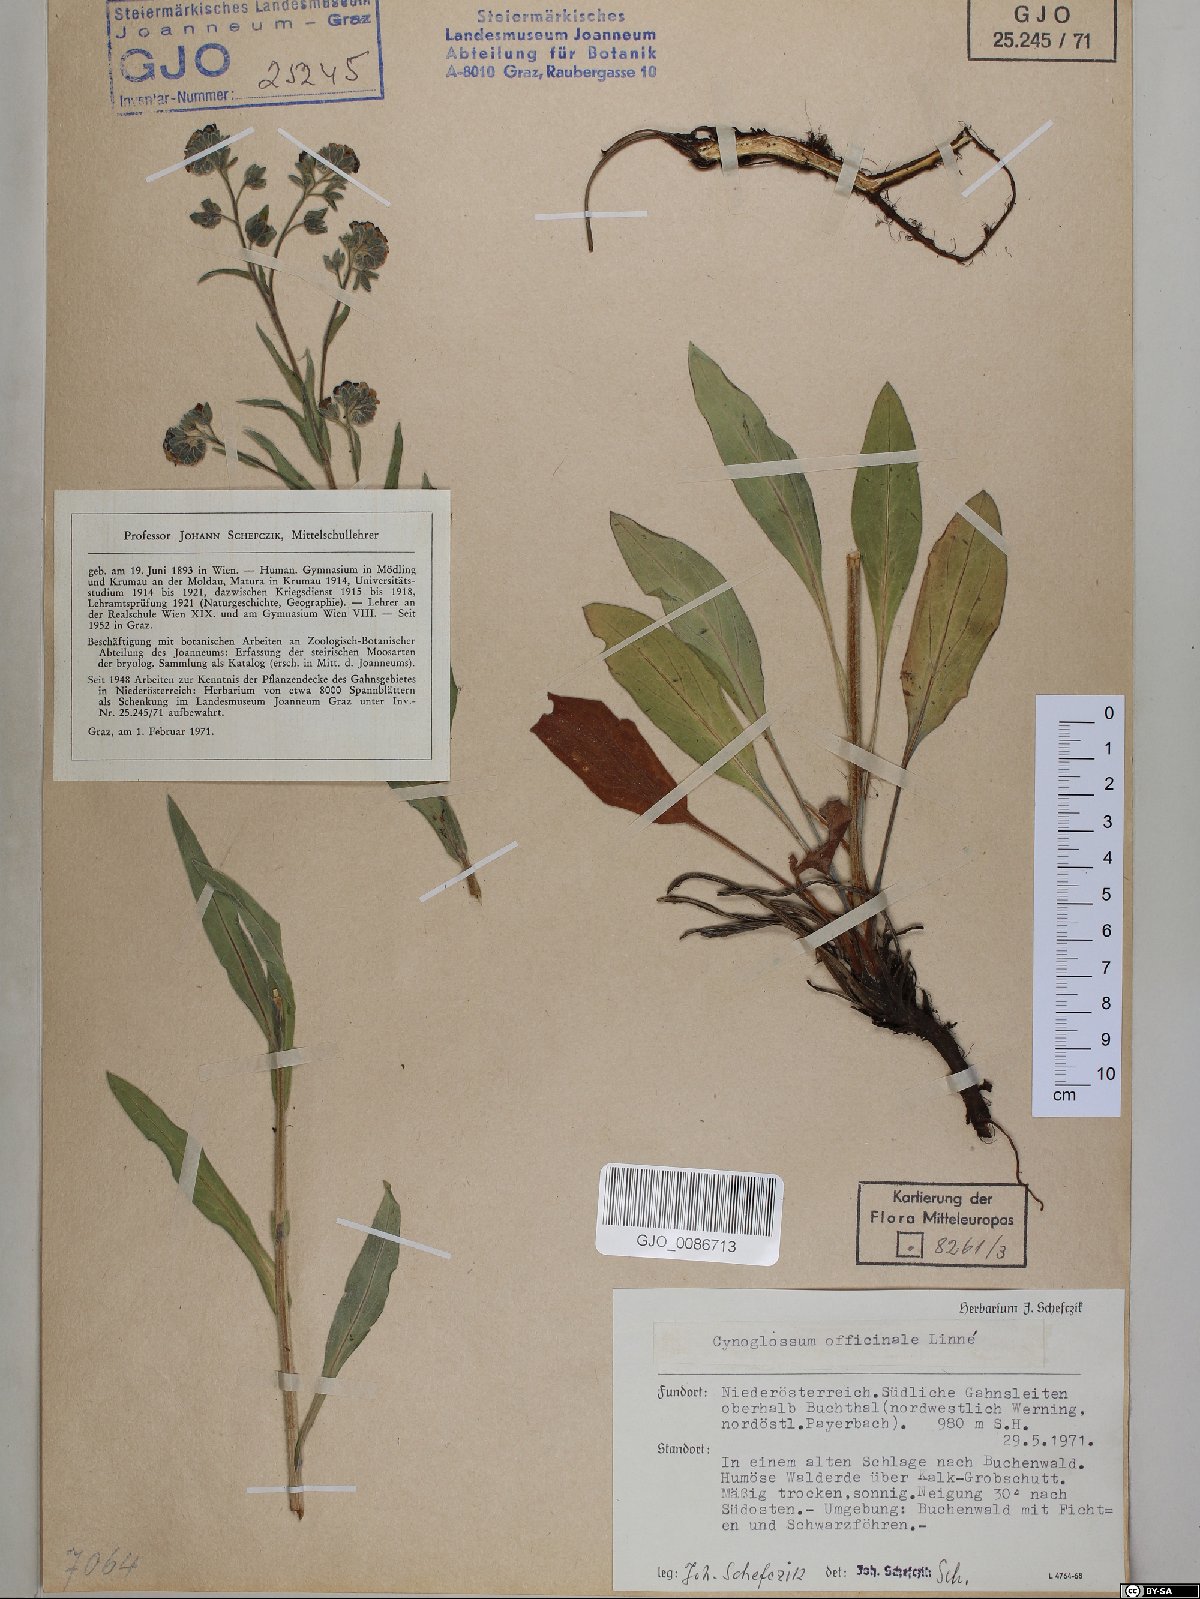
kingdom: Plantae
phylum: Tracheophyta
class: Magnoliopsida
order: Boraginales
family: Boraginaceae
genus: Cynoglossum
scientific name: Cynoglossum officinale
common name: Hound's-tongue
